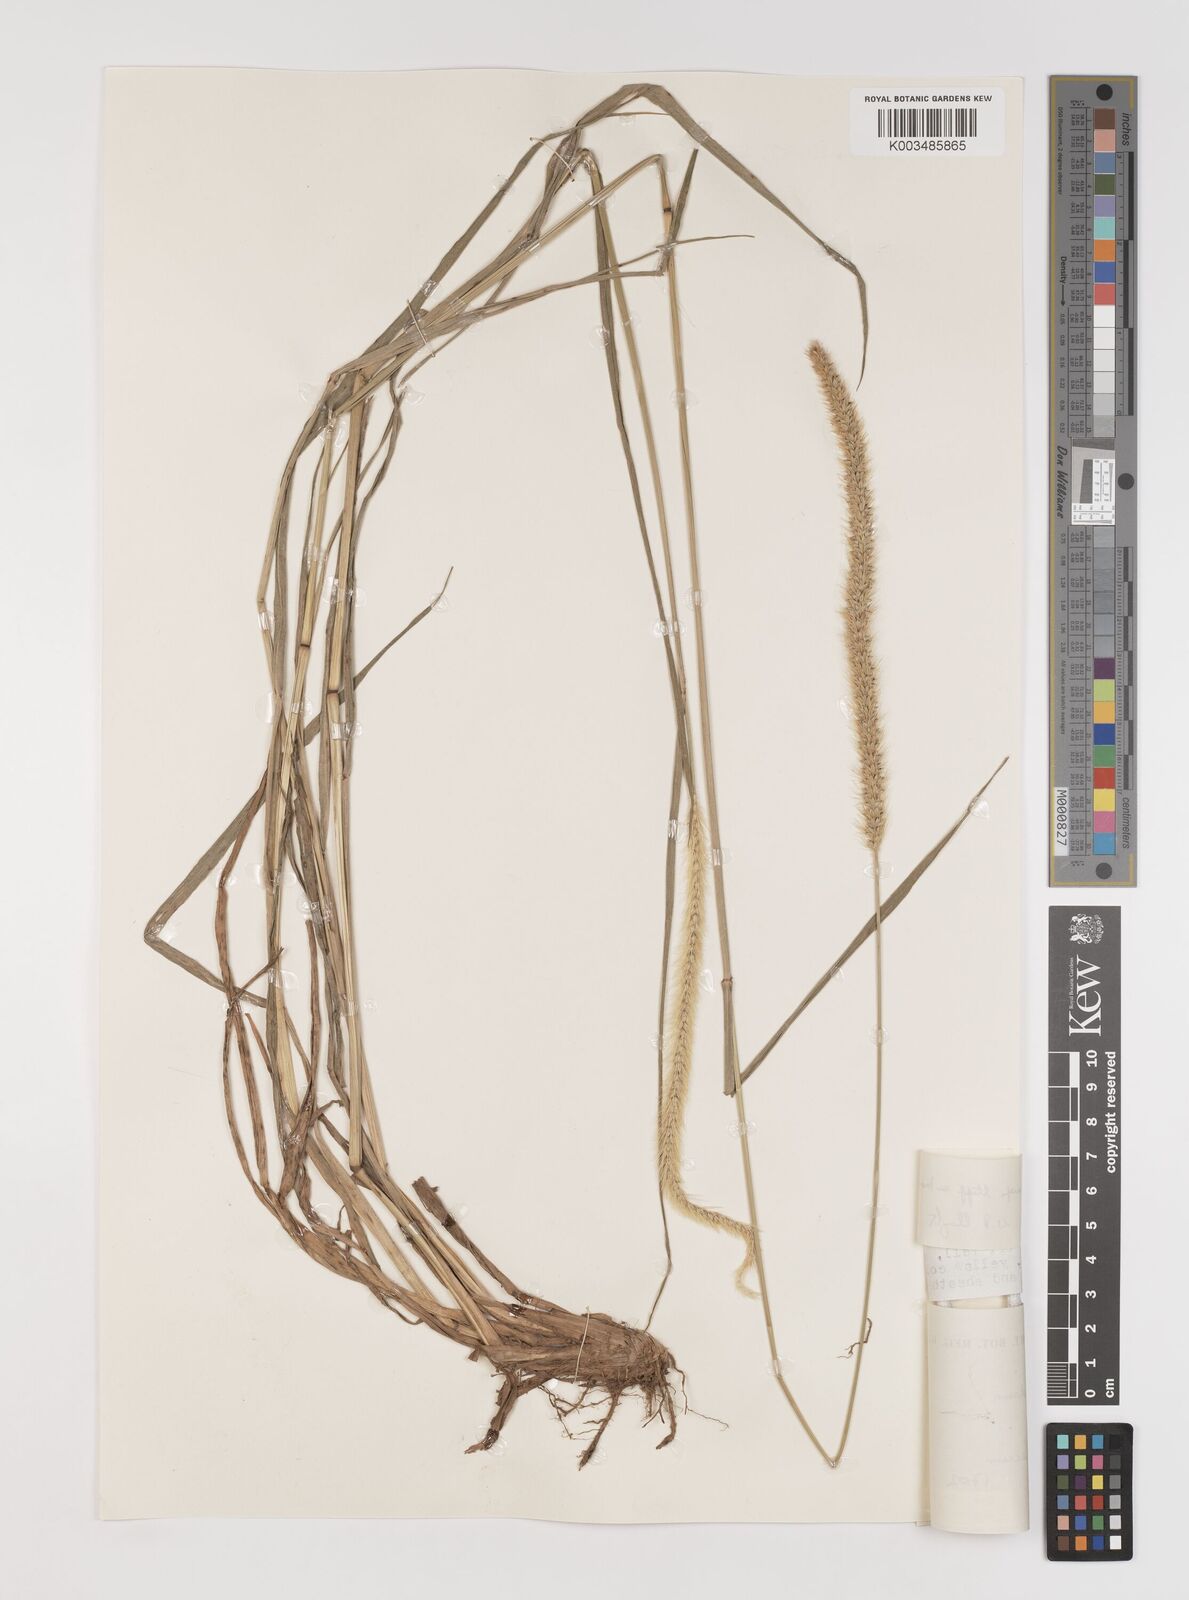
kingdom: Plantae
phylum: Tracheophyta
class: Liliopsida
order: Poales
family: Poaceae
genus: Setaria
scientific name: Setaria sphacelata
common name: African bristlegrass
